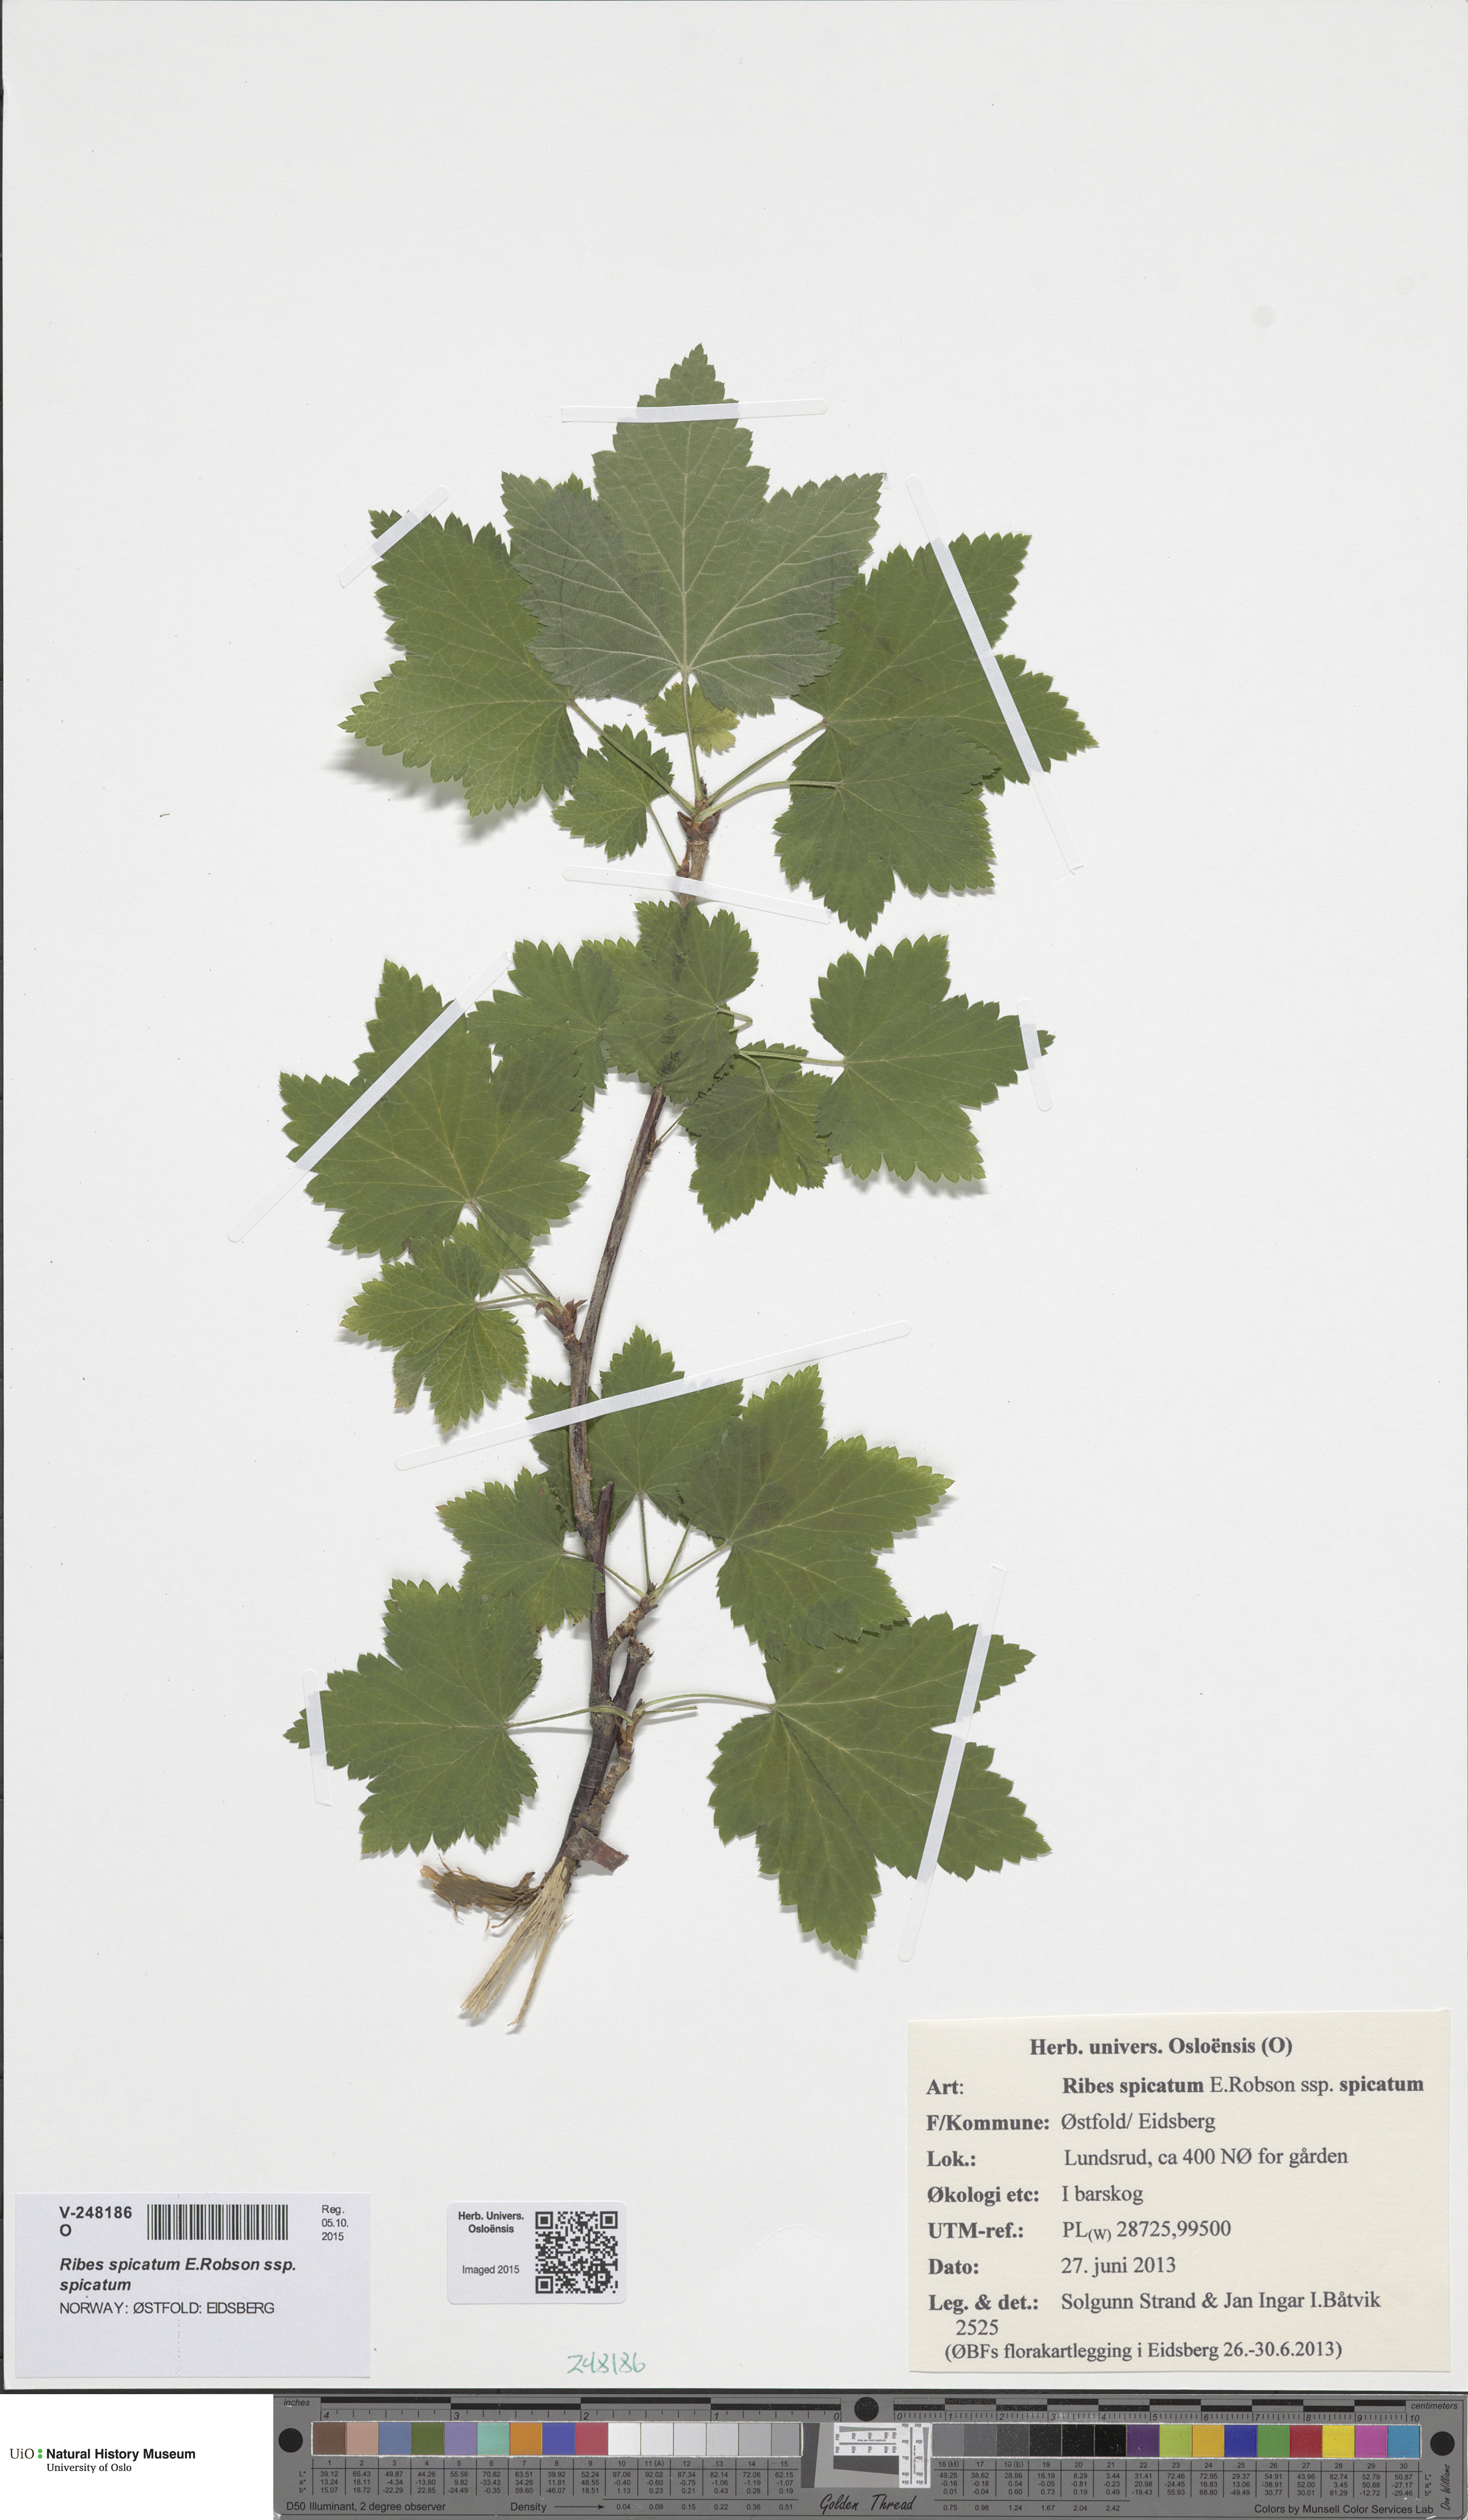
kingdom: Plantae
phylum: Tracheophyta
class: Magnoliopsida
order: Saxifragales
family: Grossulariaceae
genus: Ribes
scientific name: Ribes spicatum
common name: Downy currant
